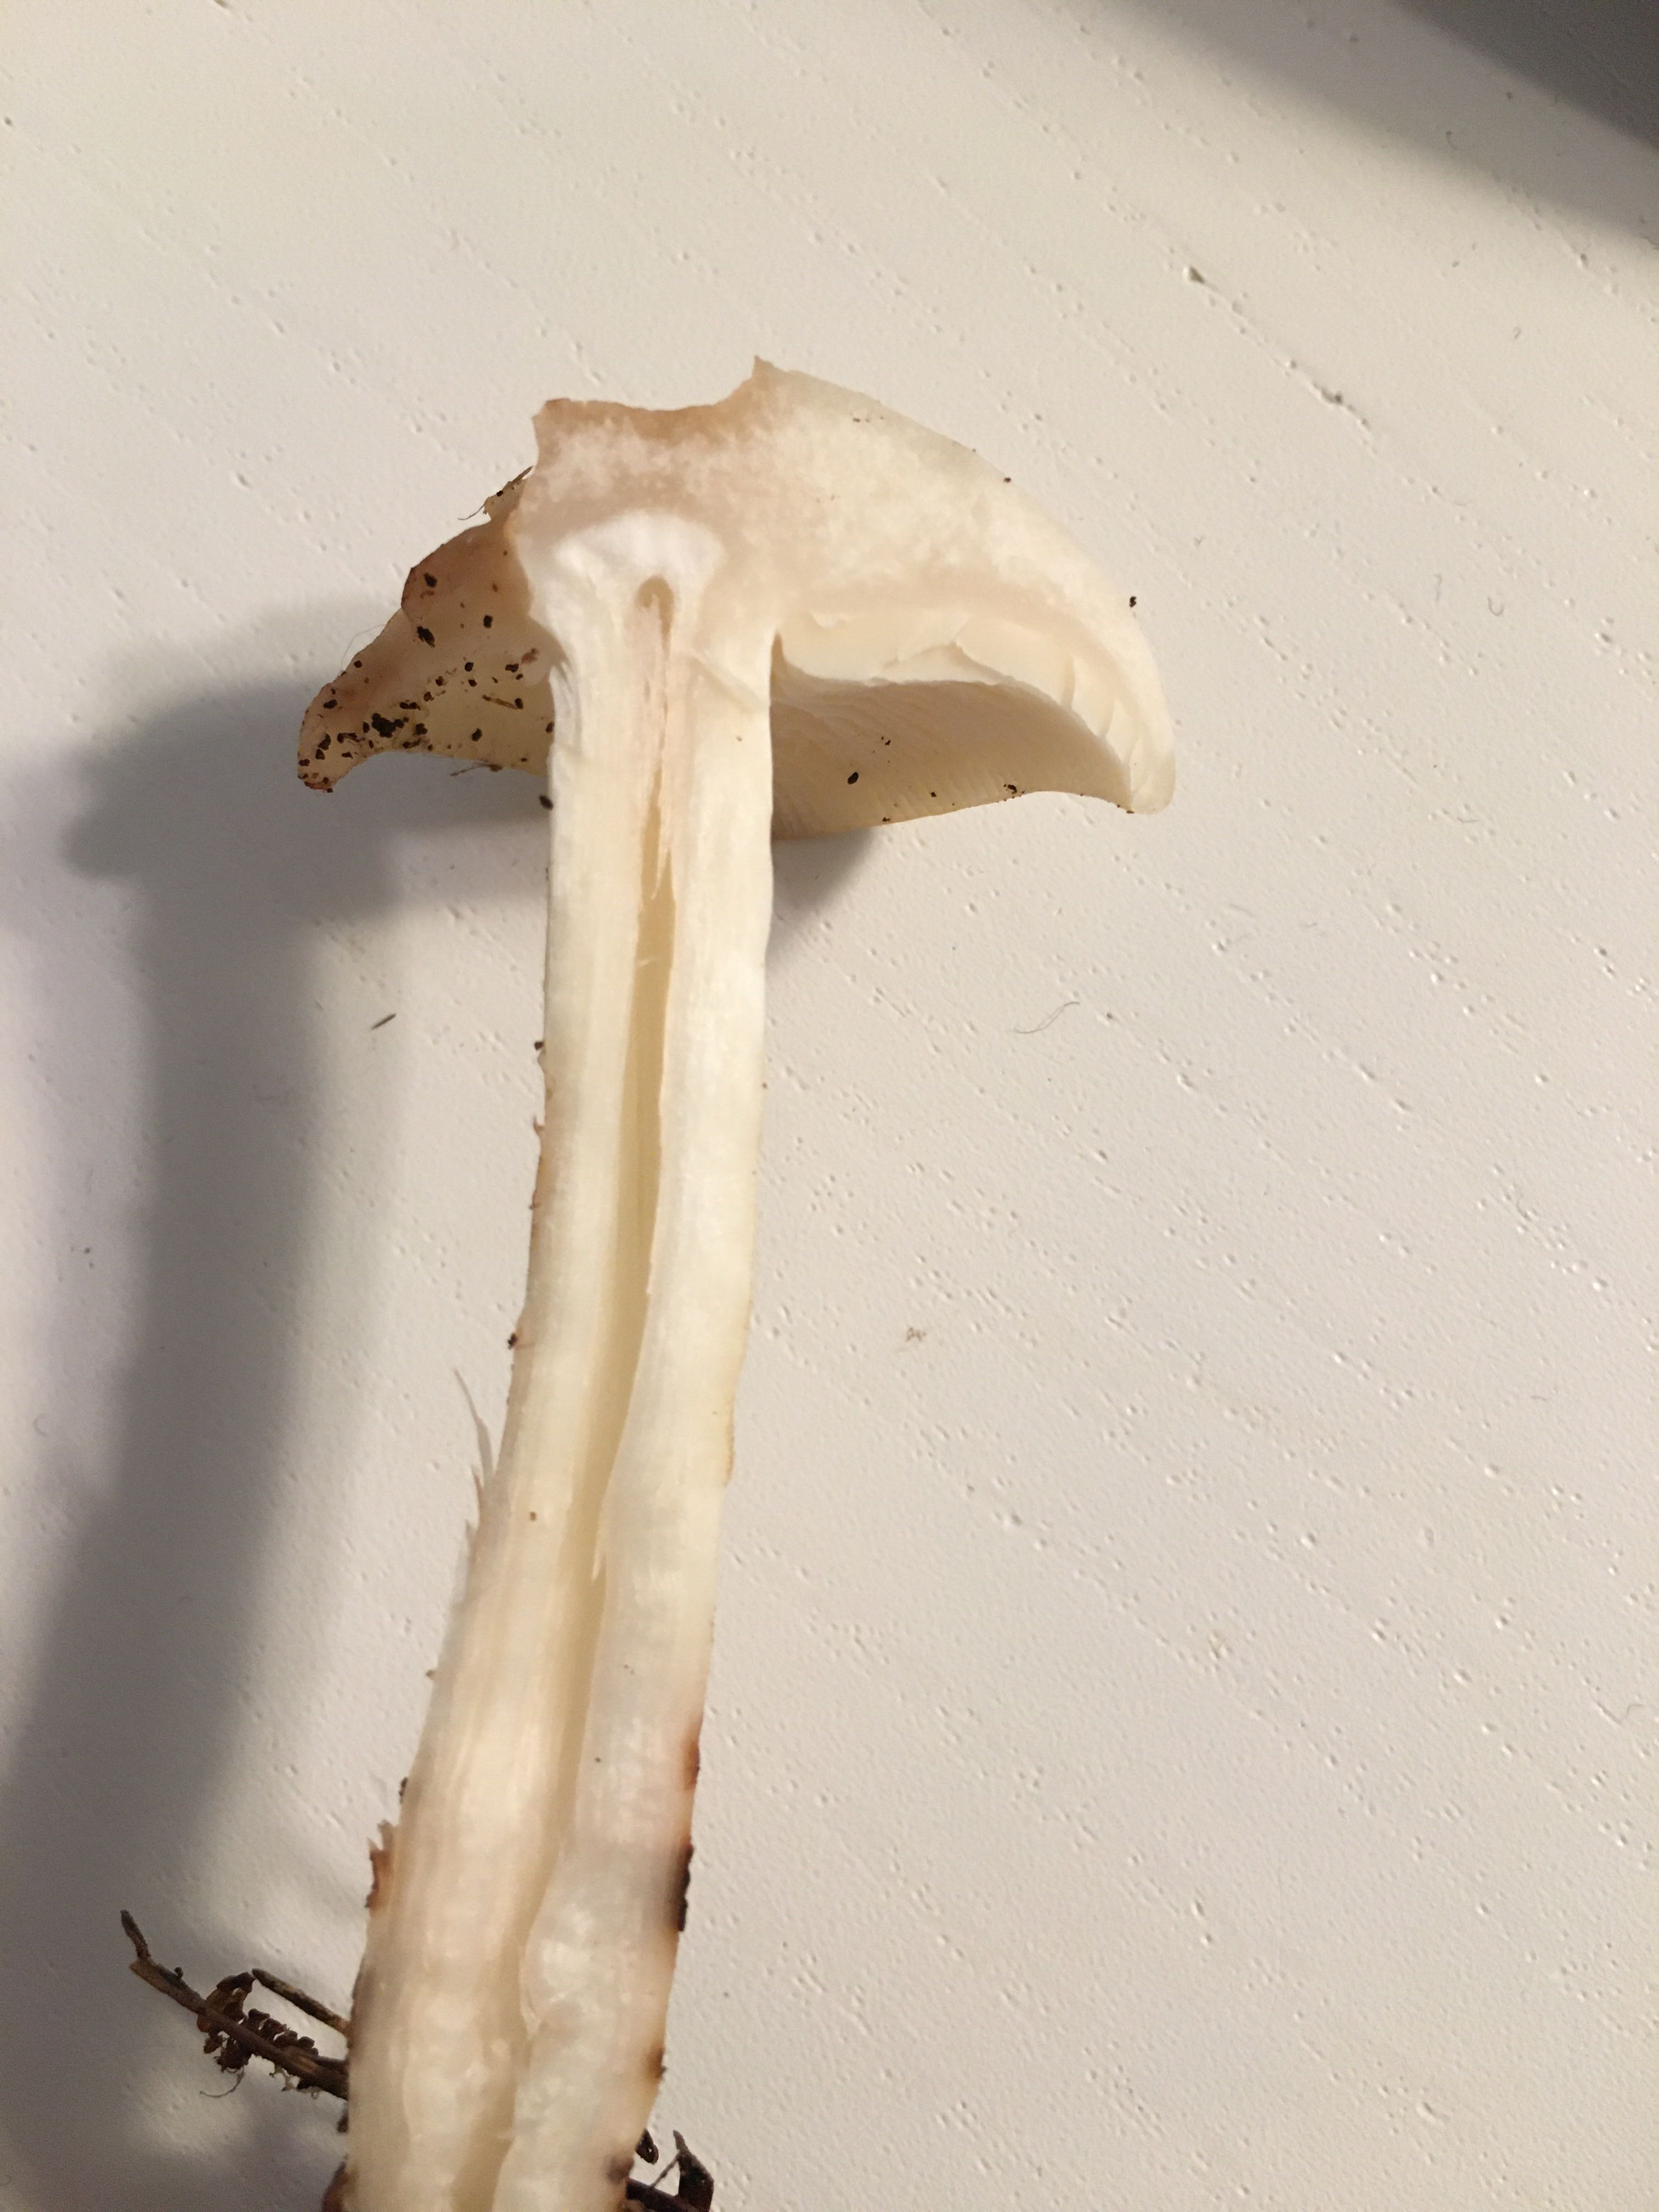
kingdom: Fungi
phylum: Basidiomycota
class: Agaricomycetes
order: Agaricales
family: Omphalotaceae
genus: Rhodocollybia
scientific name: Rhodocollybia maculata
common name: plettet fladhat
